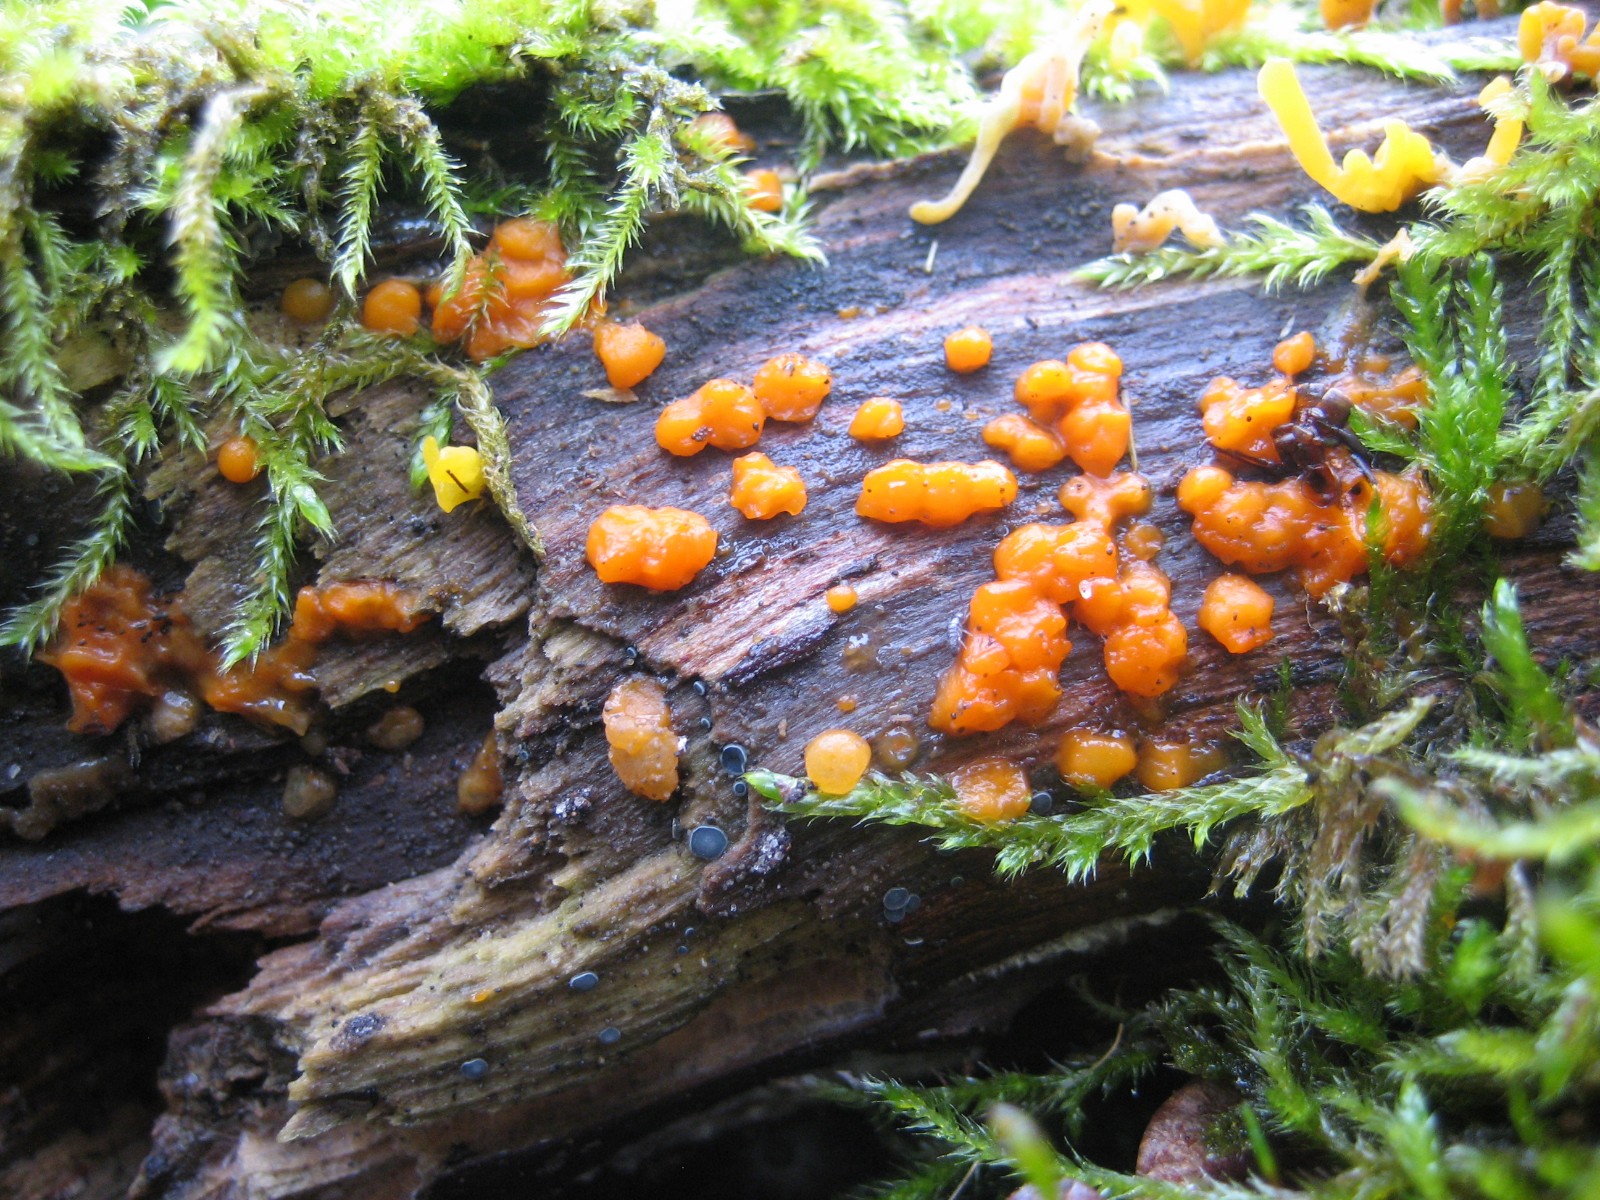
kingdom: Fungi
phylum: Basidiomycota
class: Dacrymycetes
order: Dacrymycetales
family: Dacrymycetaceae
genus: Dacrymyces
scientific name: Dacrymyces stillatus
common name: almindelig tåresvamp
